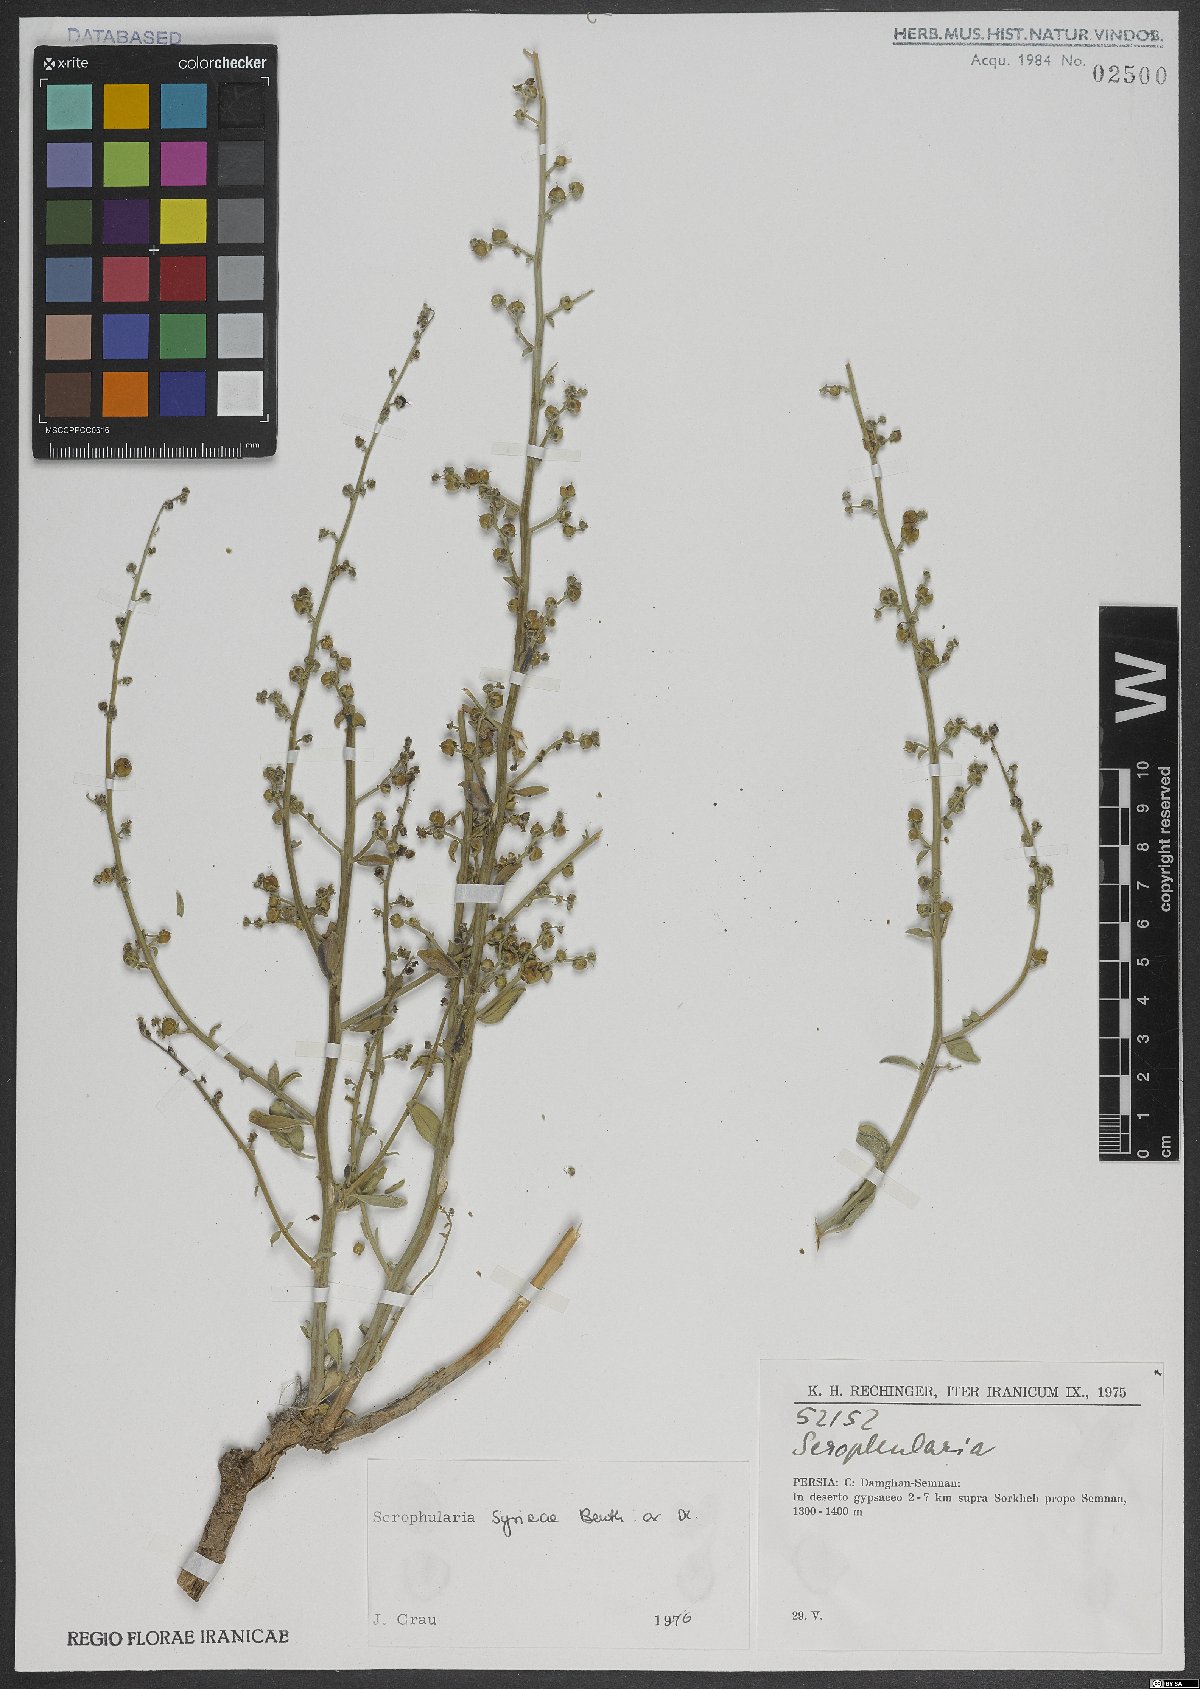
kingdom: Plantae
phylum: Tracheophyta
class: Magnoliopsida
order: Lamiales
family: Scrophulariaceae
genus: Scrophularia
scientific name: Scrophularia hypericifolia
